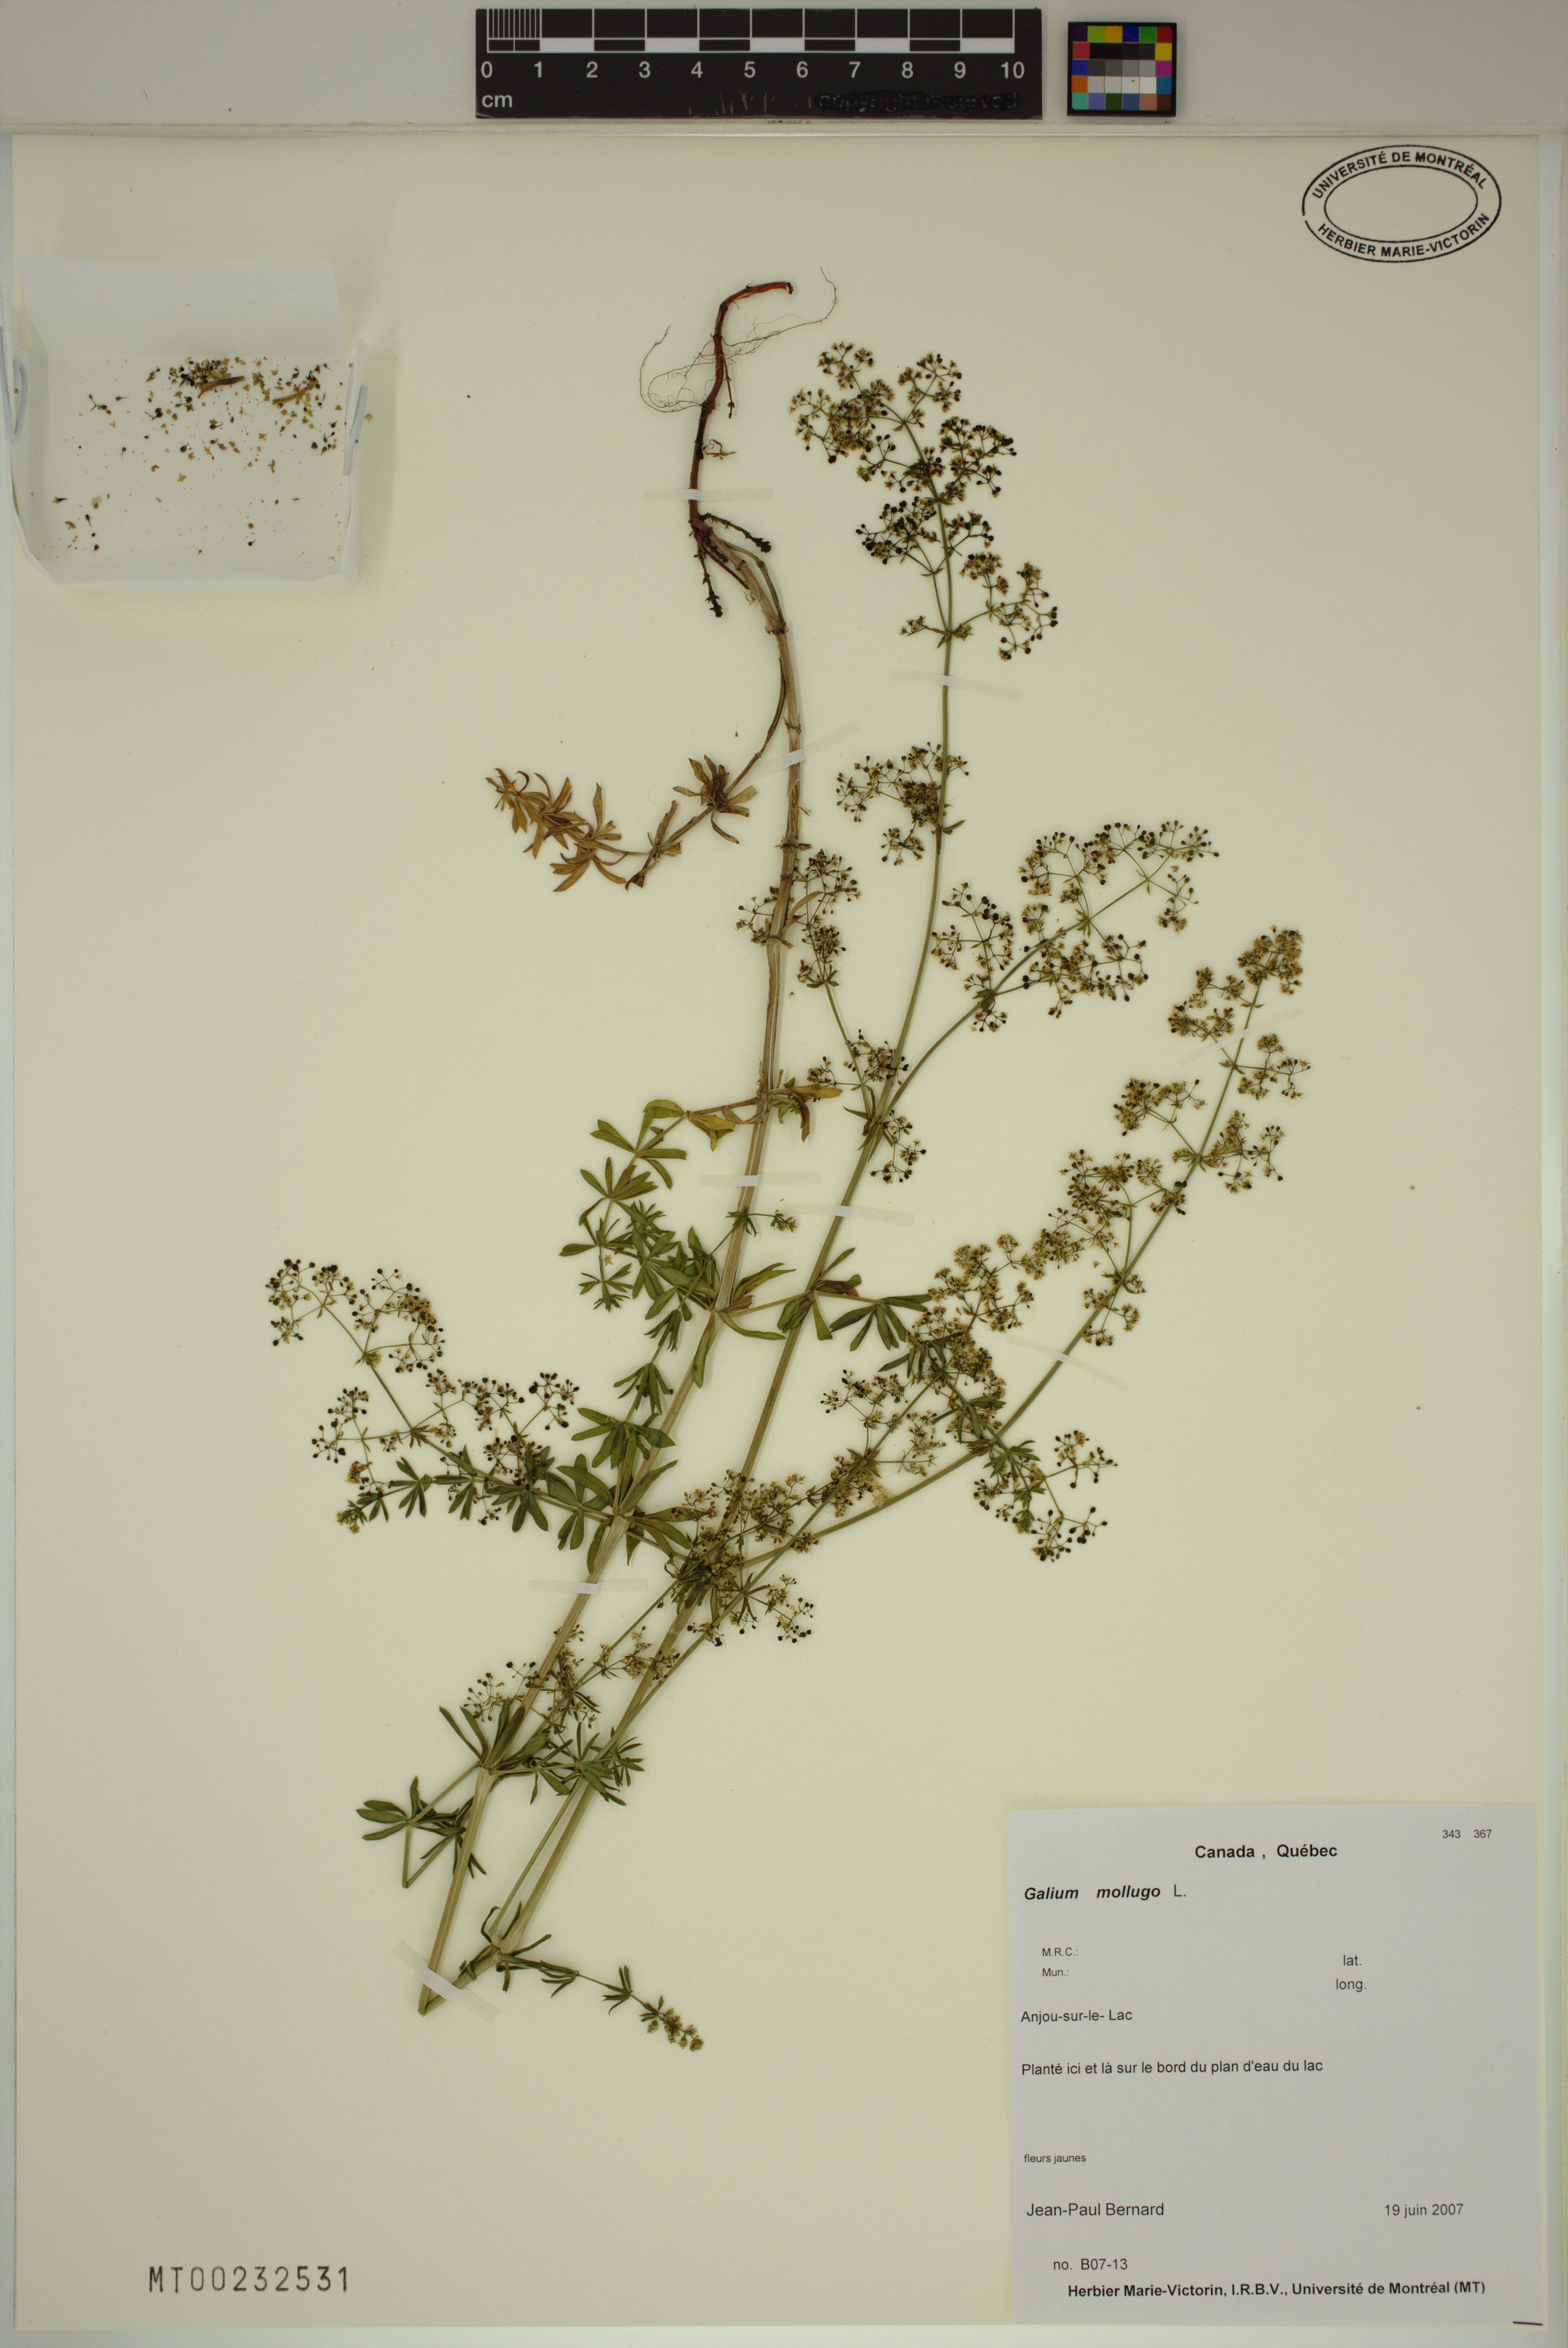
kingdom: Plantae
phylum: Tracheophyta
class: Magnoliopsida
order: Gentianales
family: Rubiaceae
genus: Galium
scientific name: Galium mollugo
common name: Hedge bedstraw
